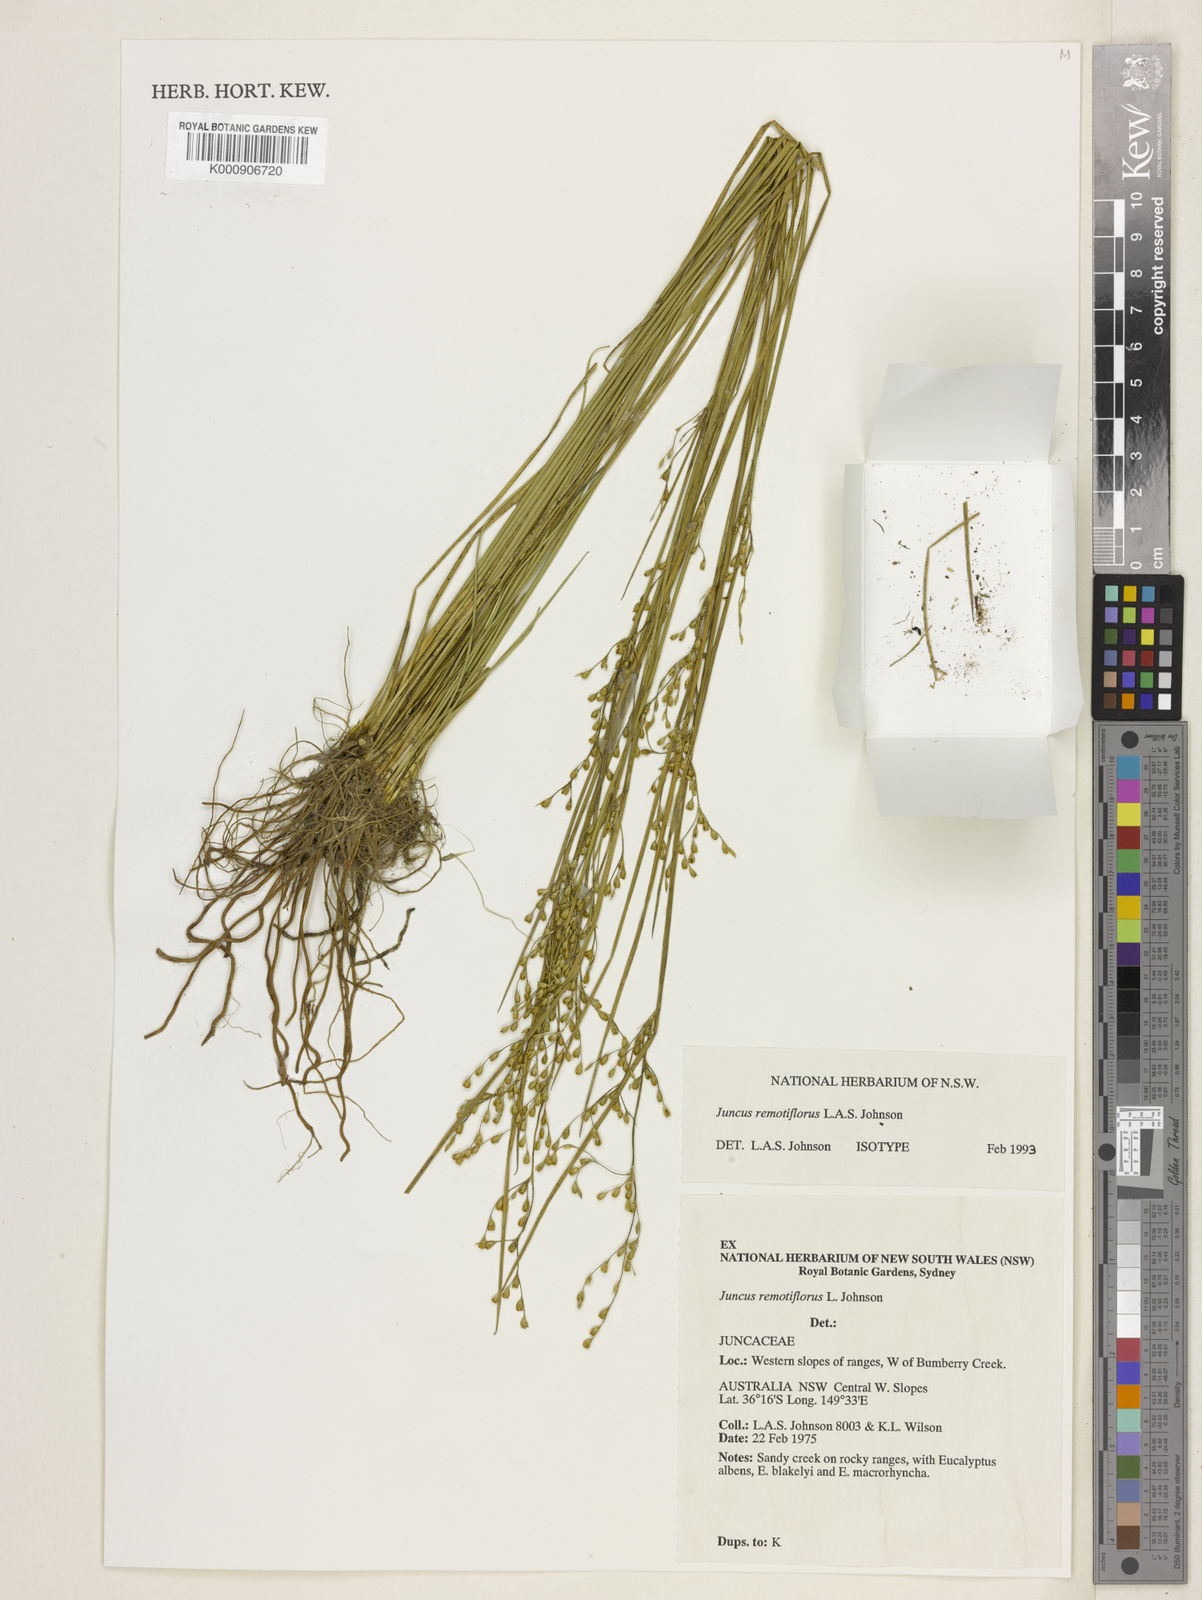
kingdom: Plantae
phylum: Tracheophyta
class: Liliopsida
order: Poales
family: Juncaceae
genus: Juncus
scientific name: Juncus remotiflorus
